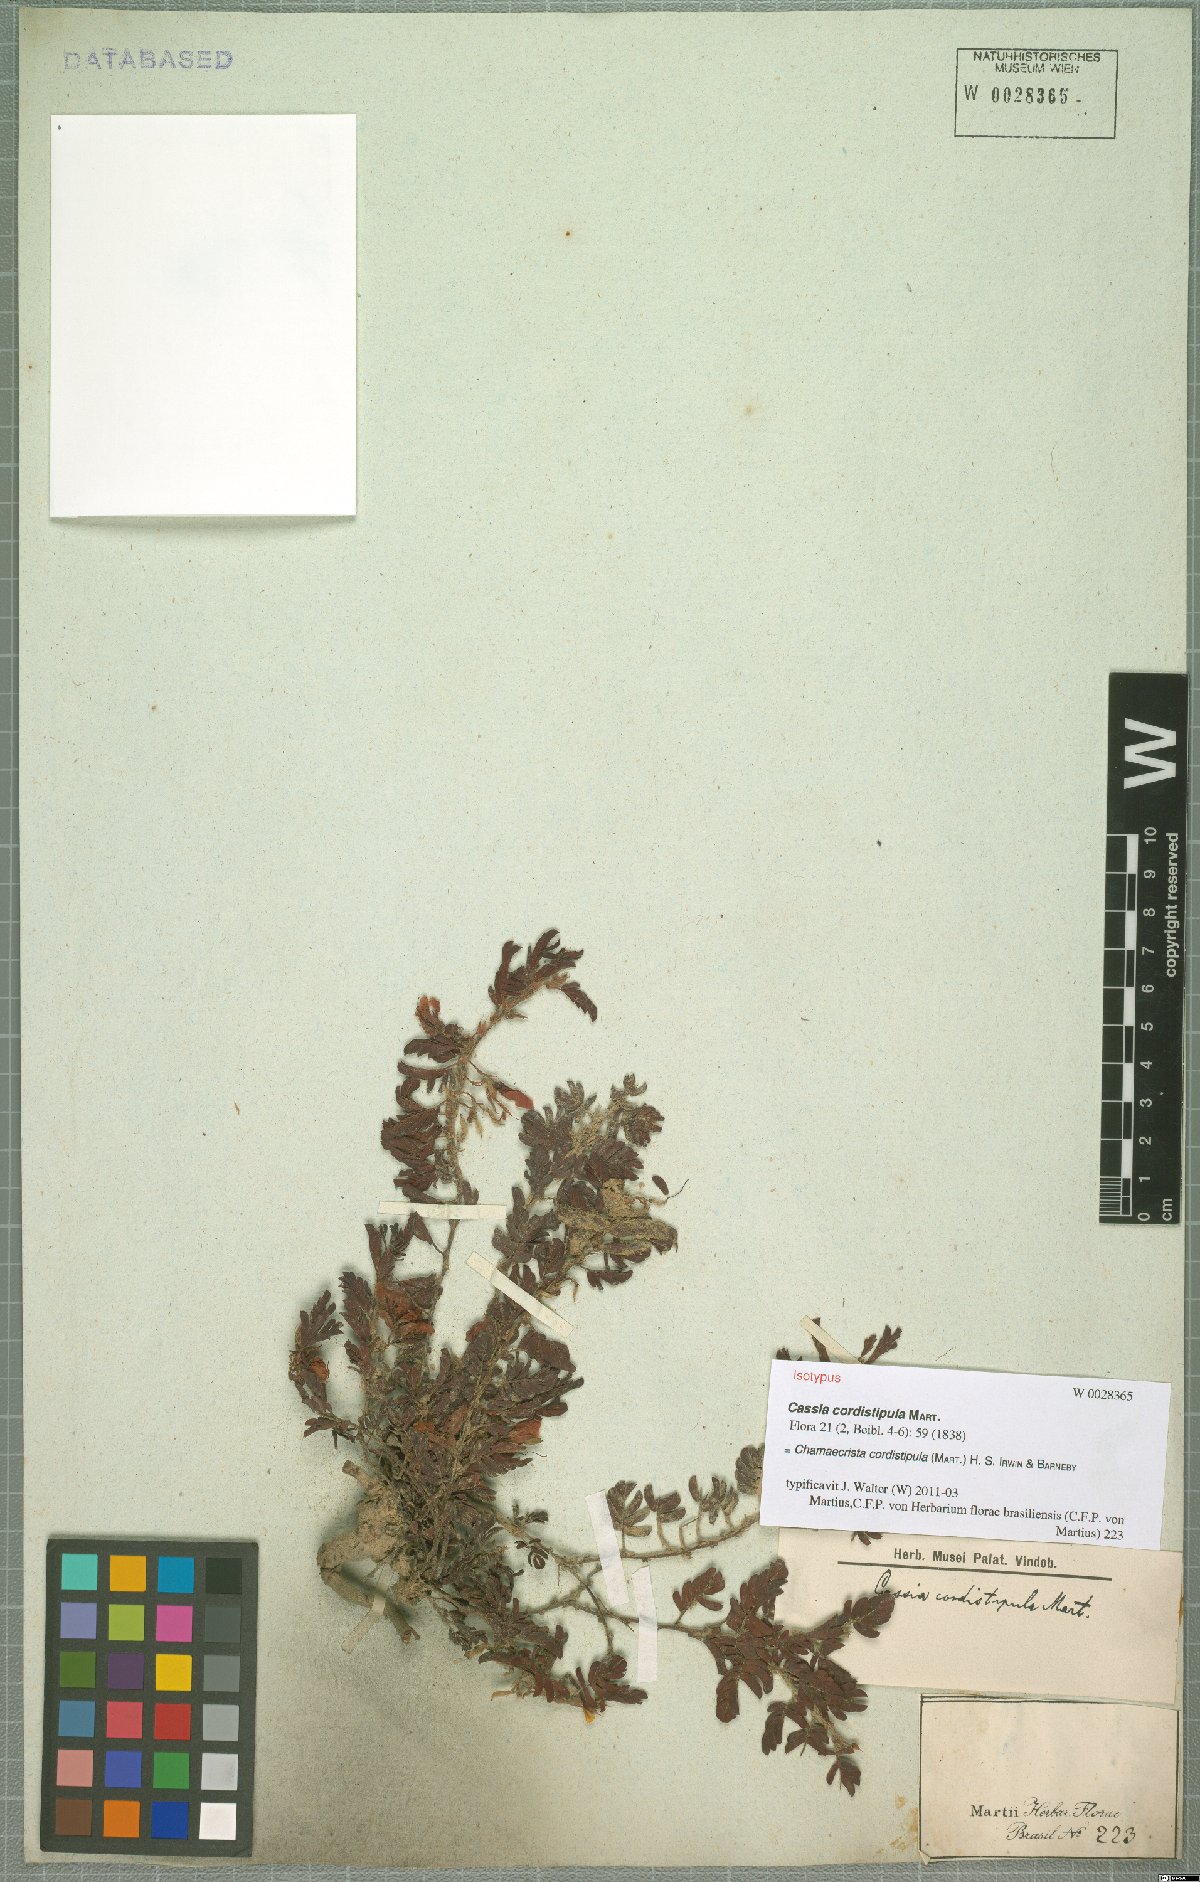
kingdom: Plantae
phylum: Tracheophyta
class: Magnoliopsida
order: Fabales
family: Fabaceae
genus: Chamaecrista
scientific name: Chamaecrista cordistipula
